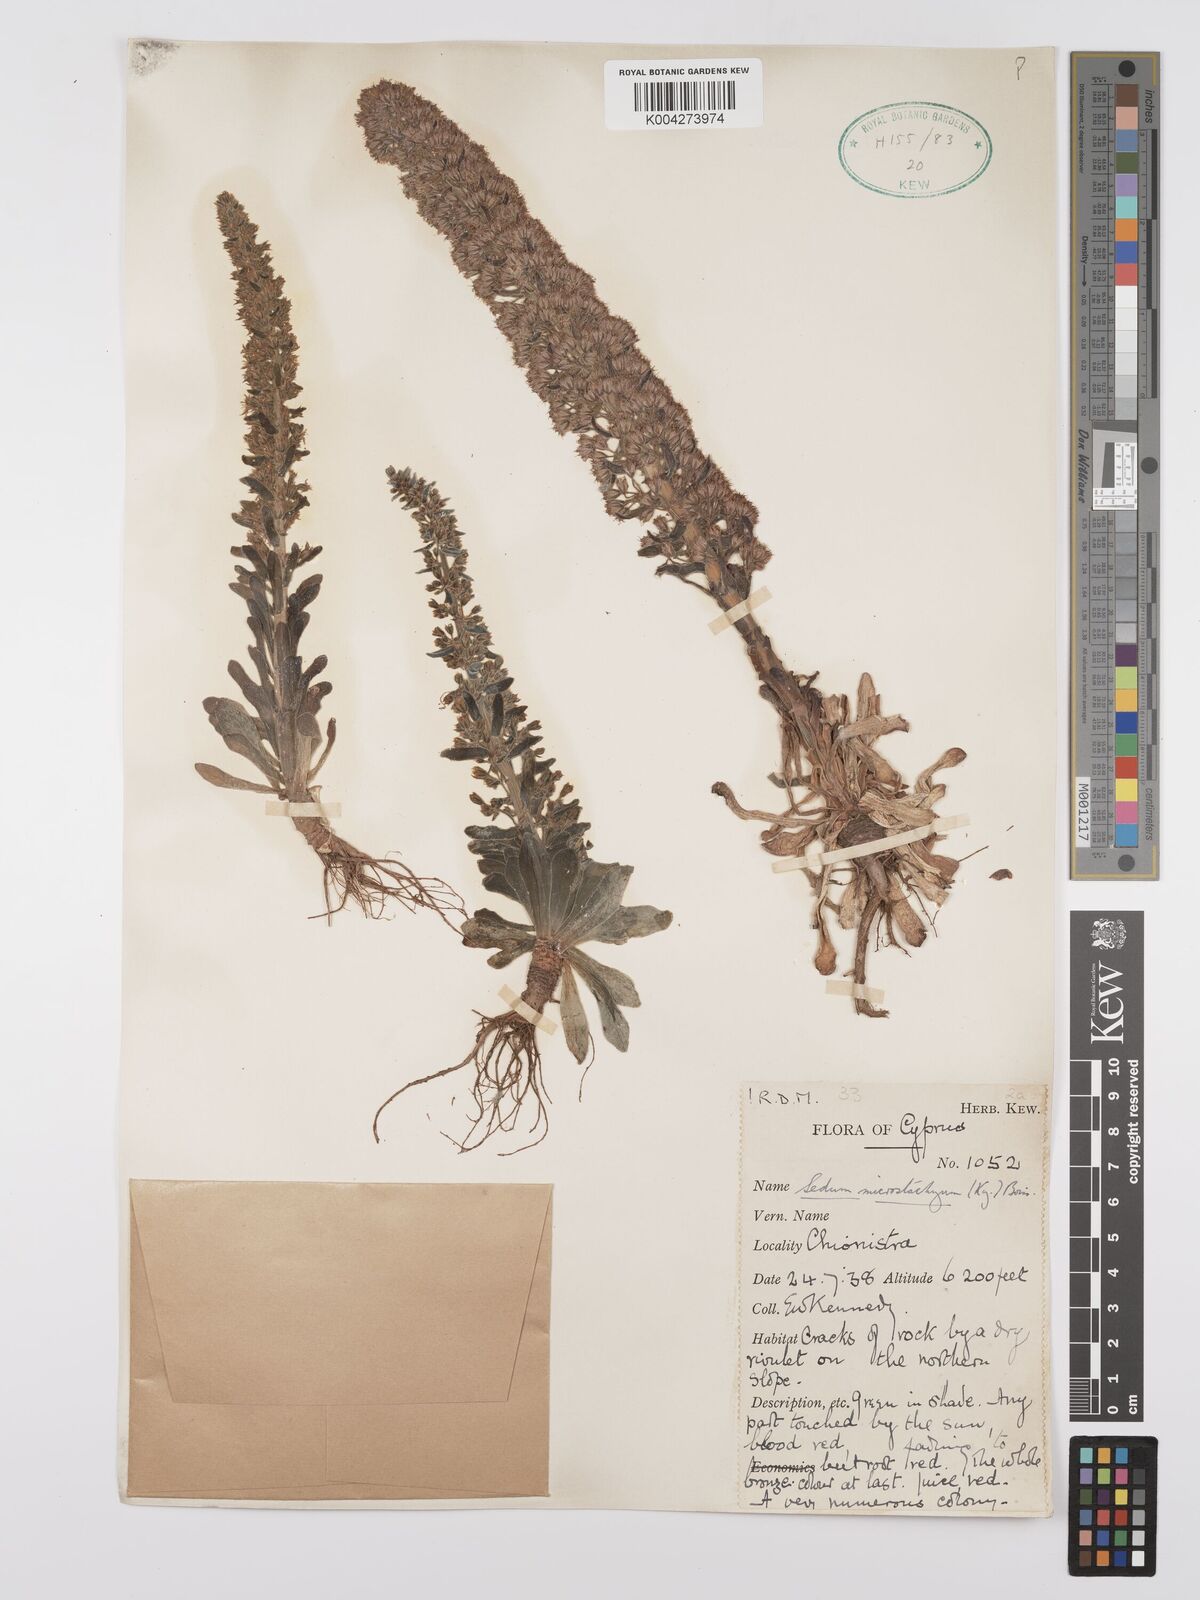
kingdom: Plantae
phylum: Tracheophyta
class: Magnoliopsida
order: Saxifragales
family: Crassulaceae
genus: Sedum
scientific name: Sedum microstachyum
